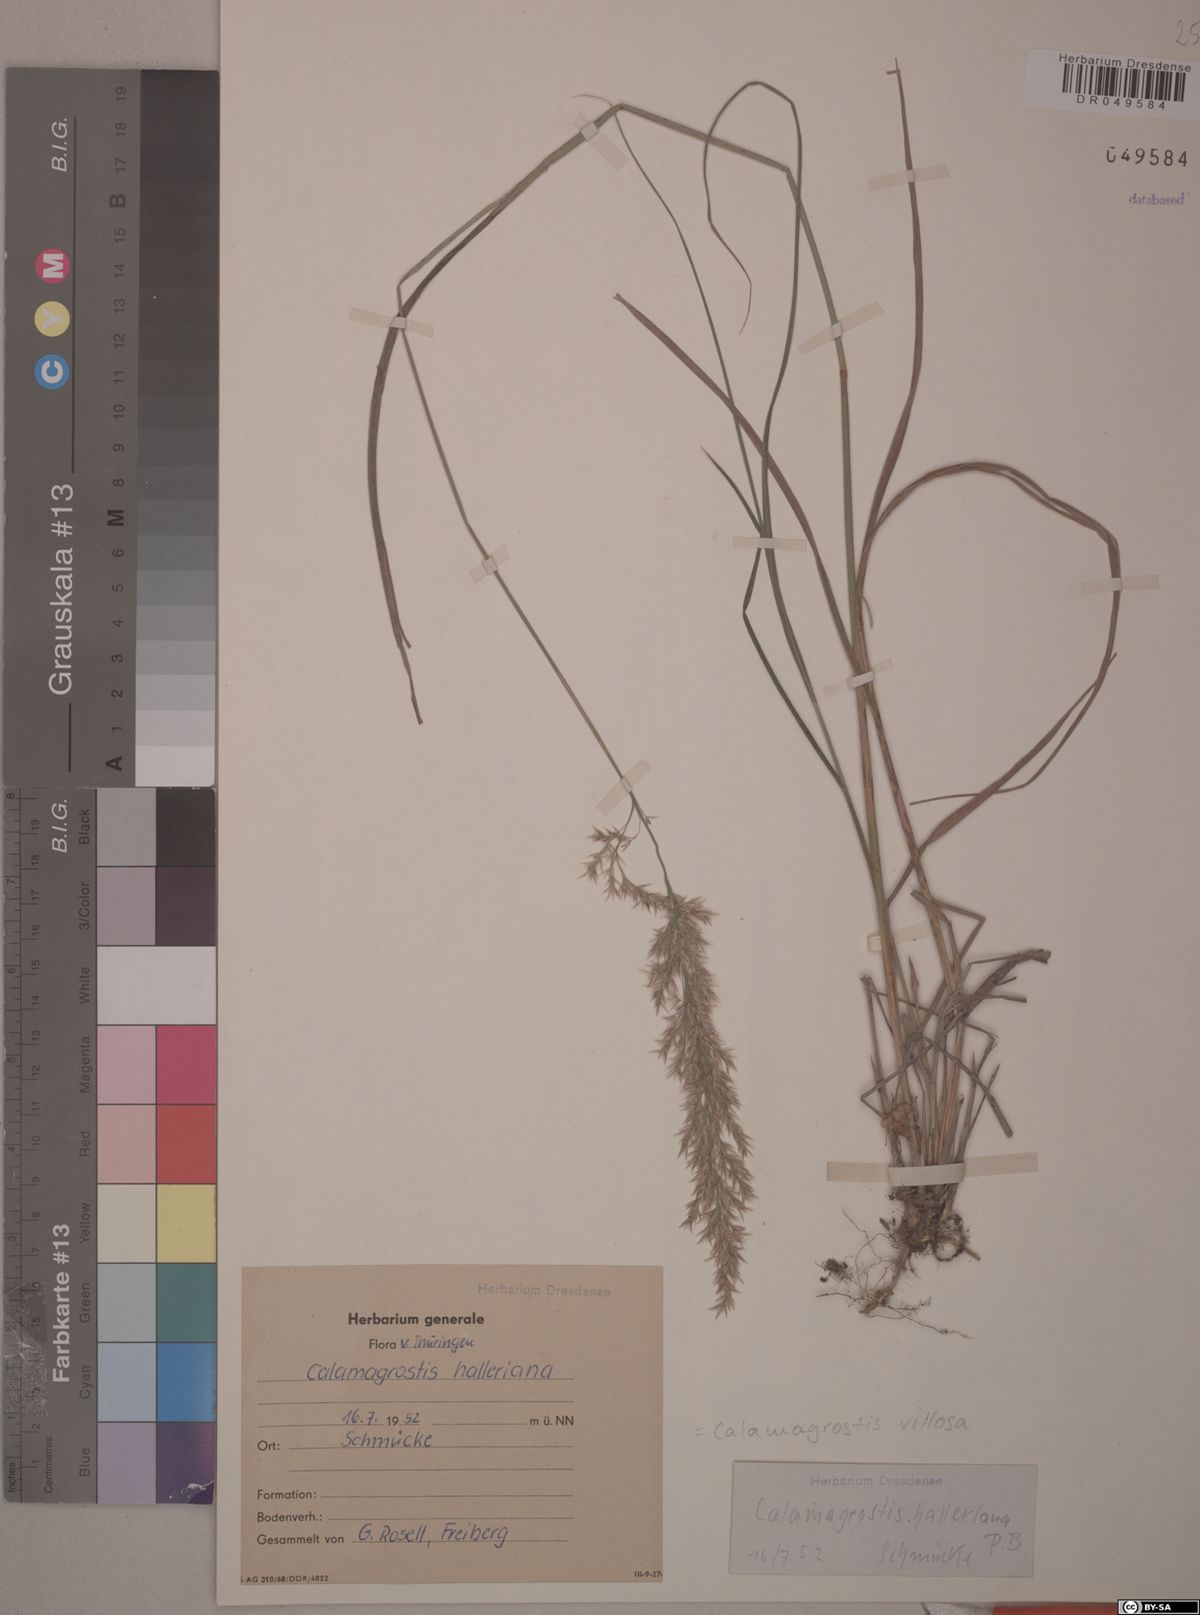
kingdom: Plantae
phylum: Tracheophyta
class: Liliopsida
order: Poales
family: Poaceae
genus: Calamagrostis
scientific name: Calamagrostis villosa
